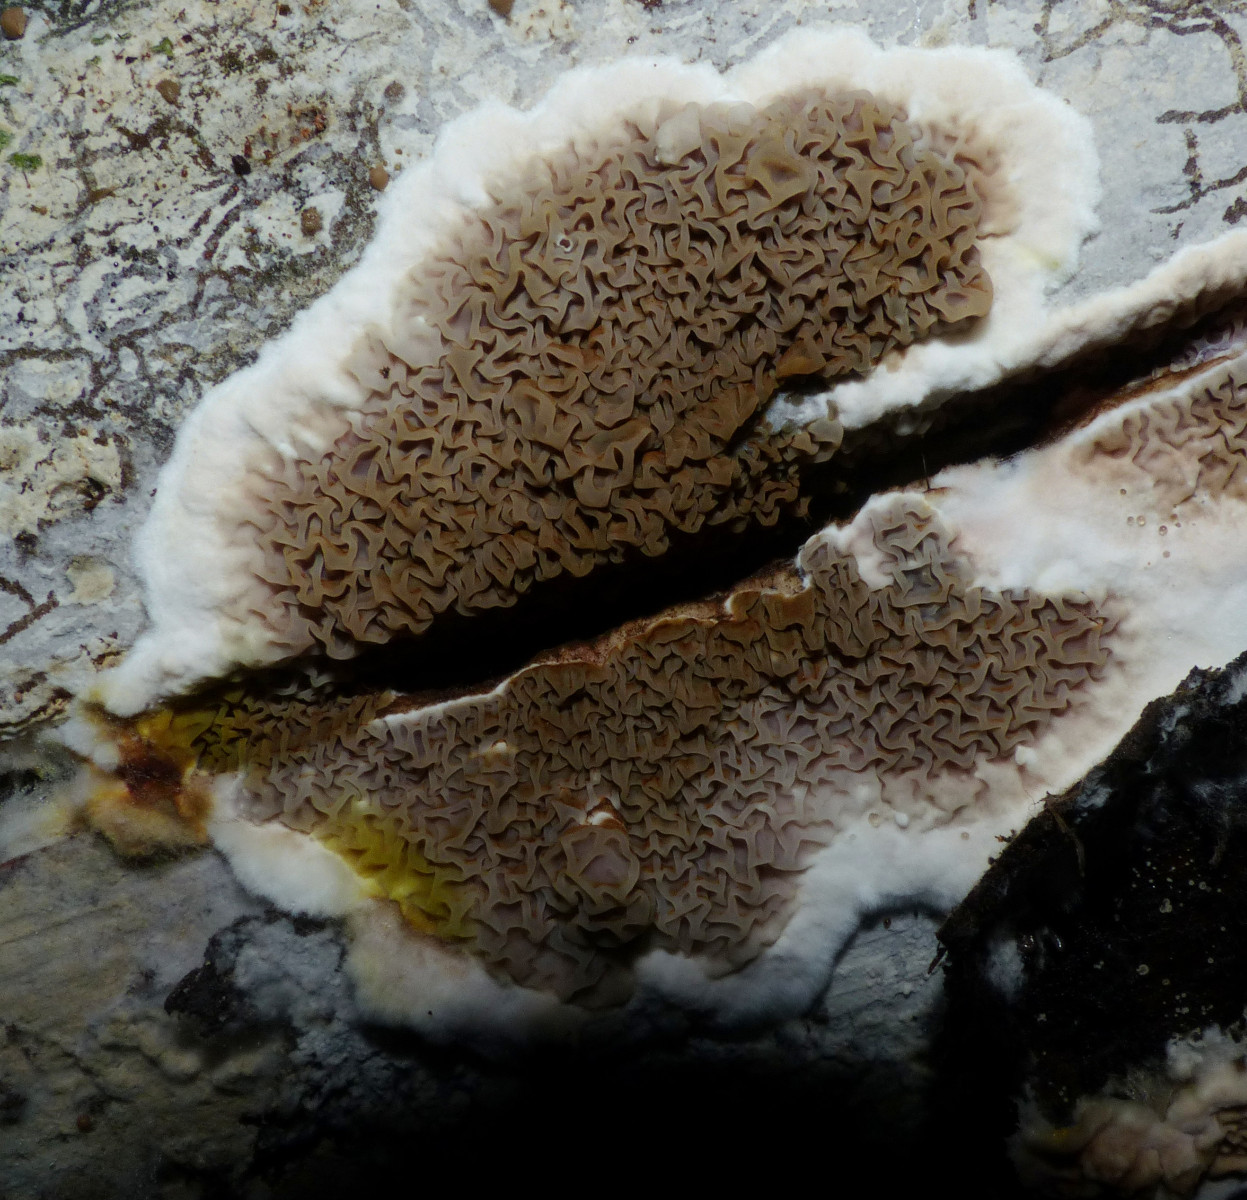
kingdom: Fungi
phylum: Basidiomycota
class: Agaricomycetes
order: Boletales
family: Serpulaceae
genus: Serpula
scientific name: Serpula himantioides
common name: tyndkødet hussvamp
